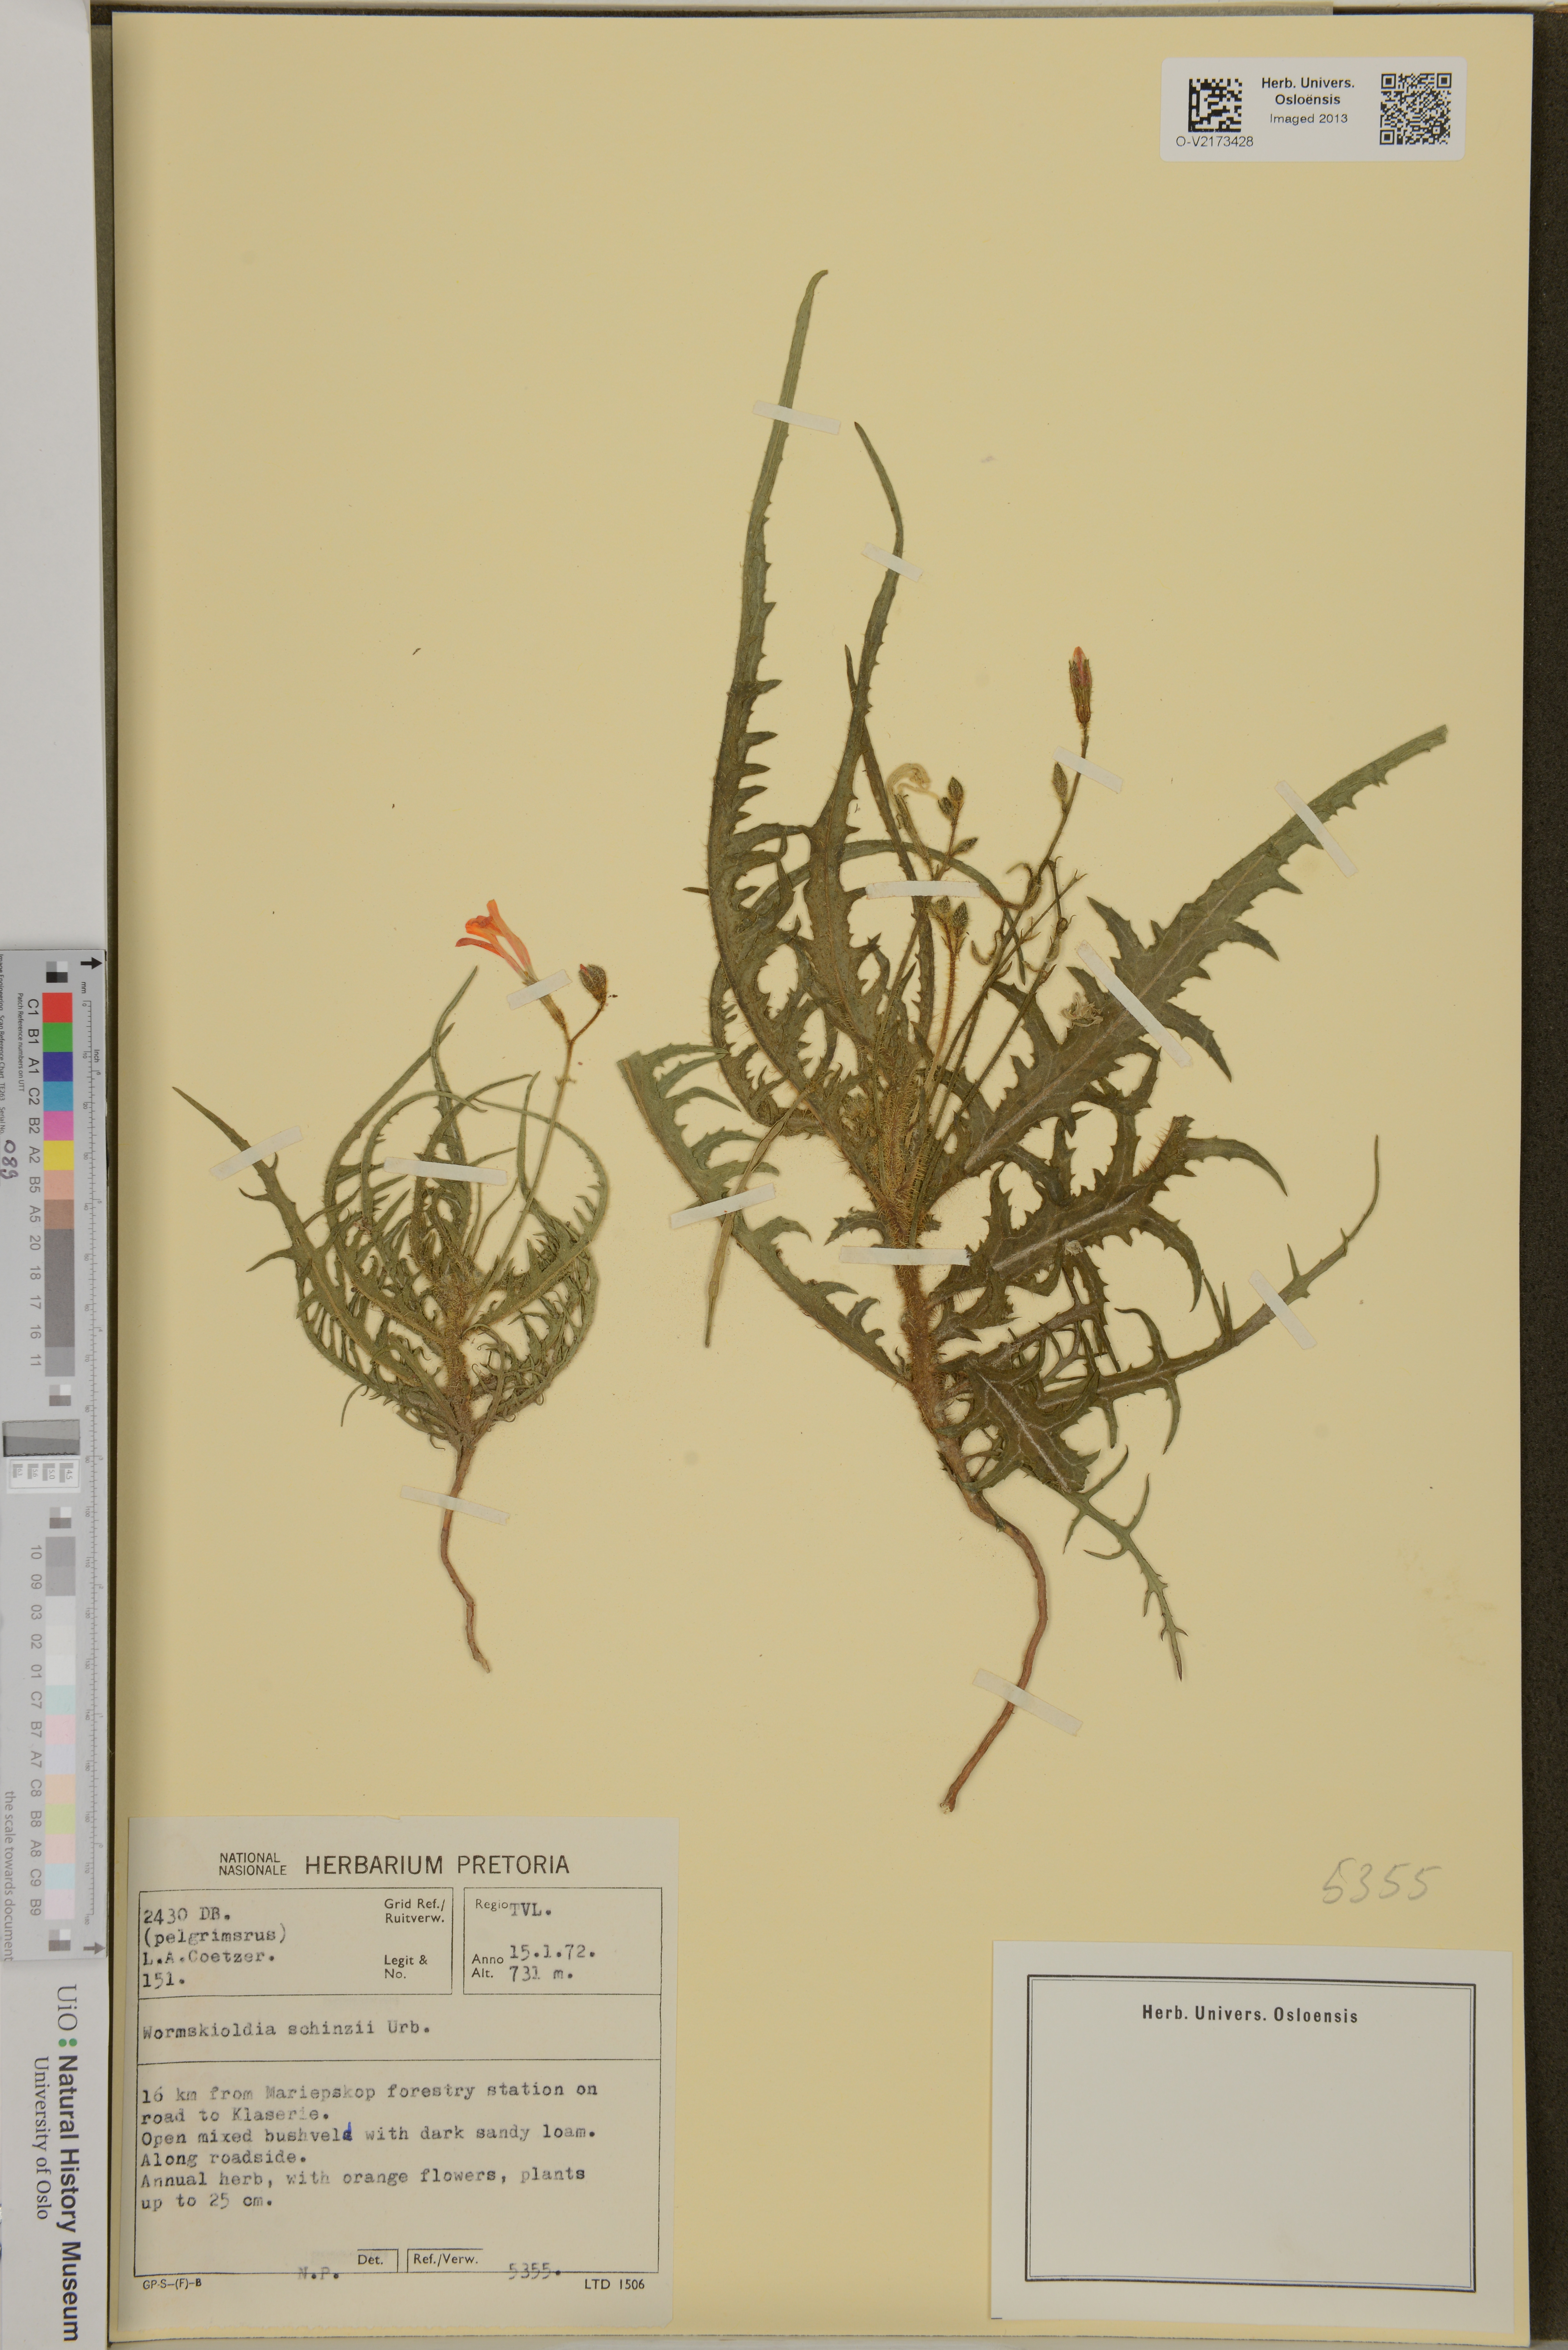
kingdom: Plantae
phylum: Tracheophyta
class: Magnoliopsida
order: Malpighiales
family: Turneraceae
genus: Tricliceras
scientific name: Tricliceras schinzii
